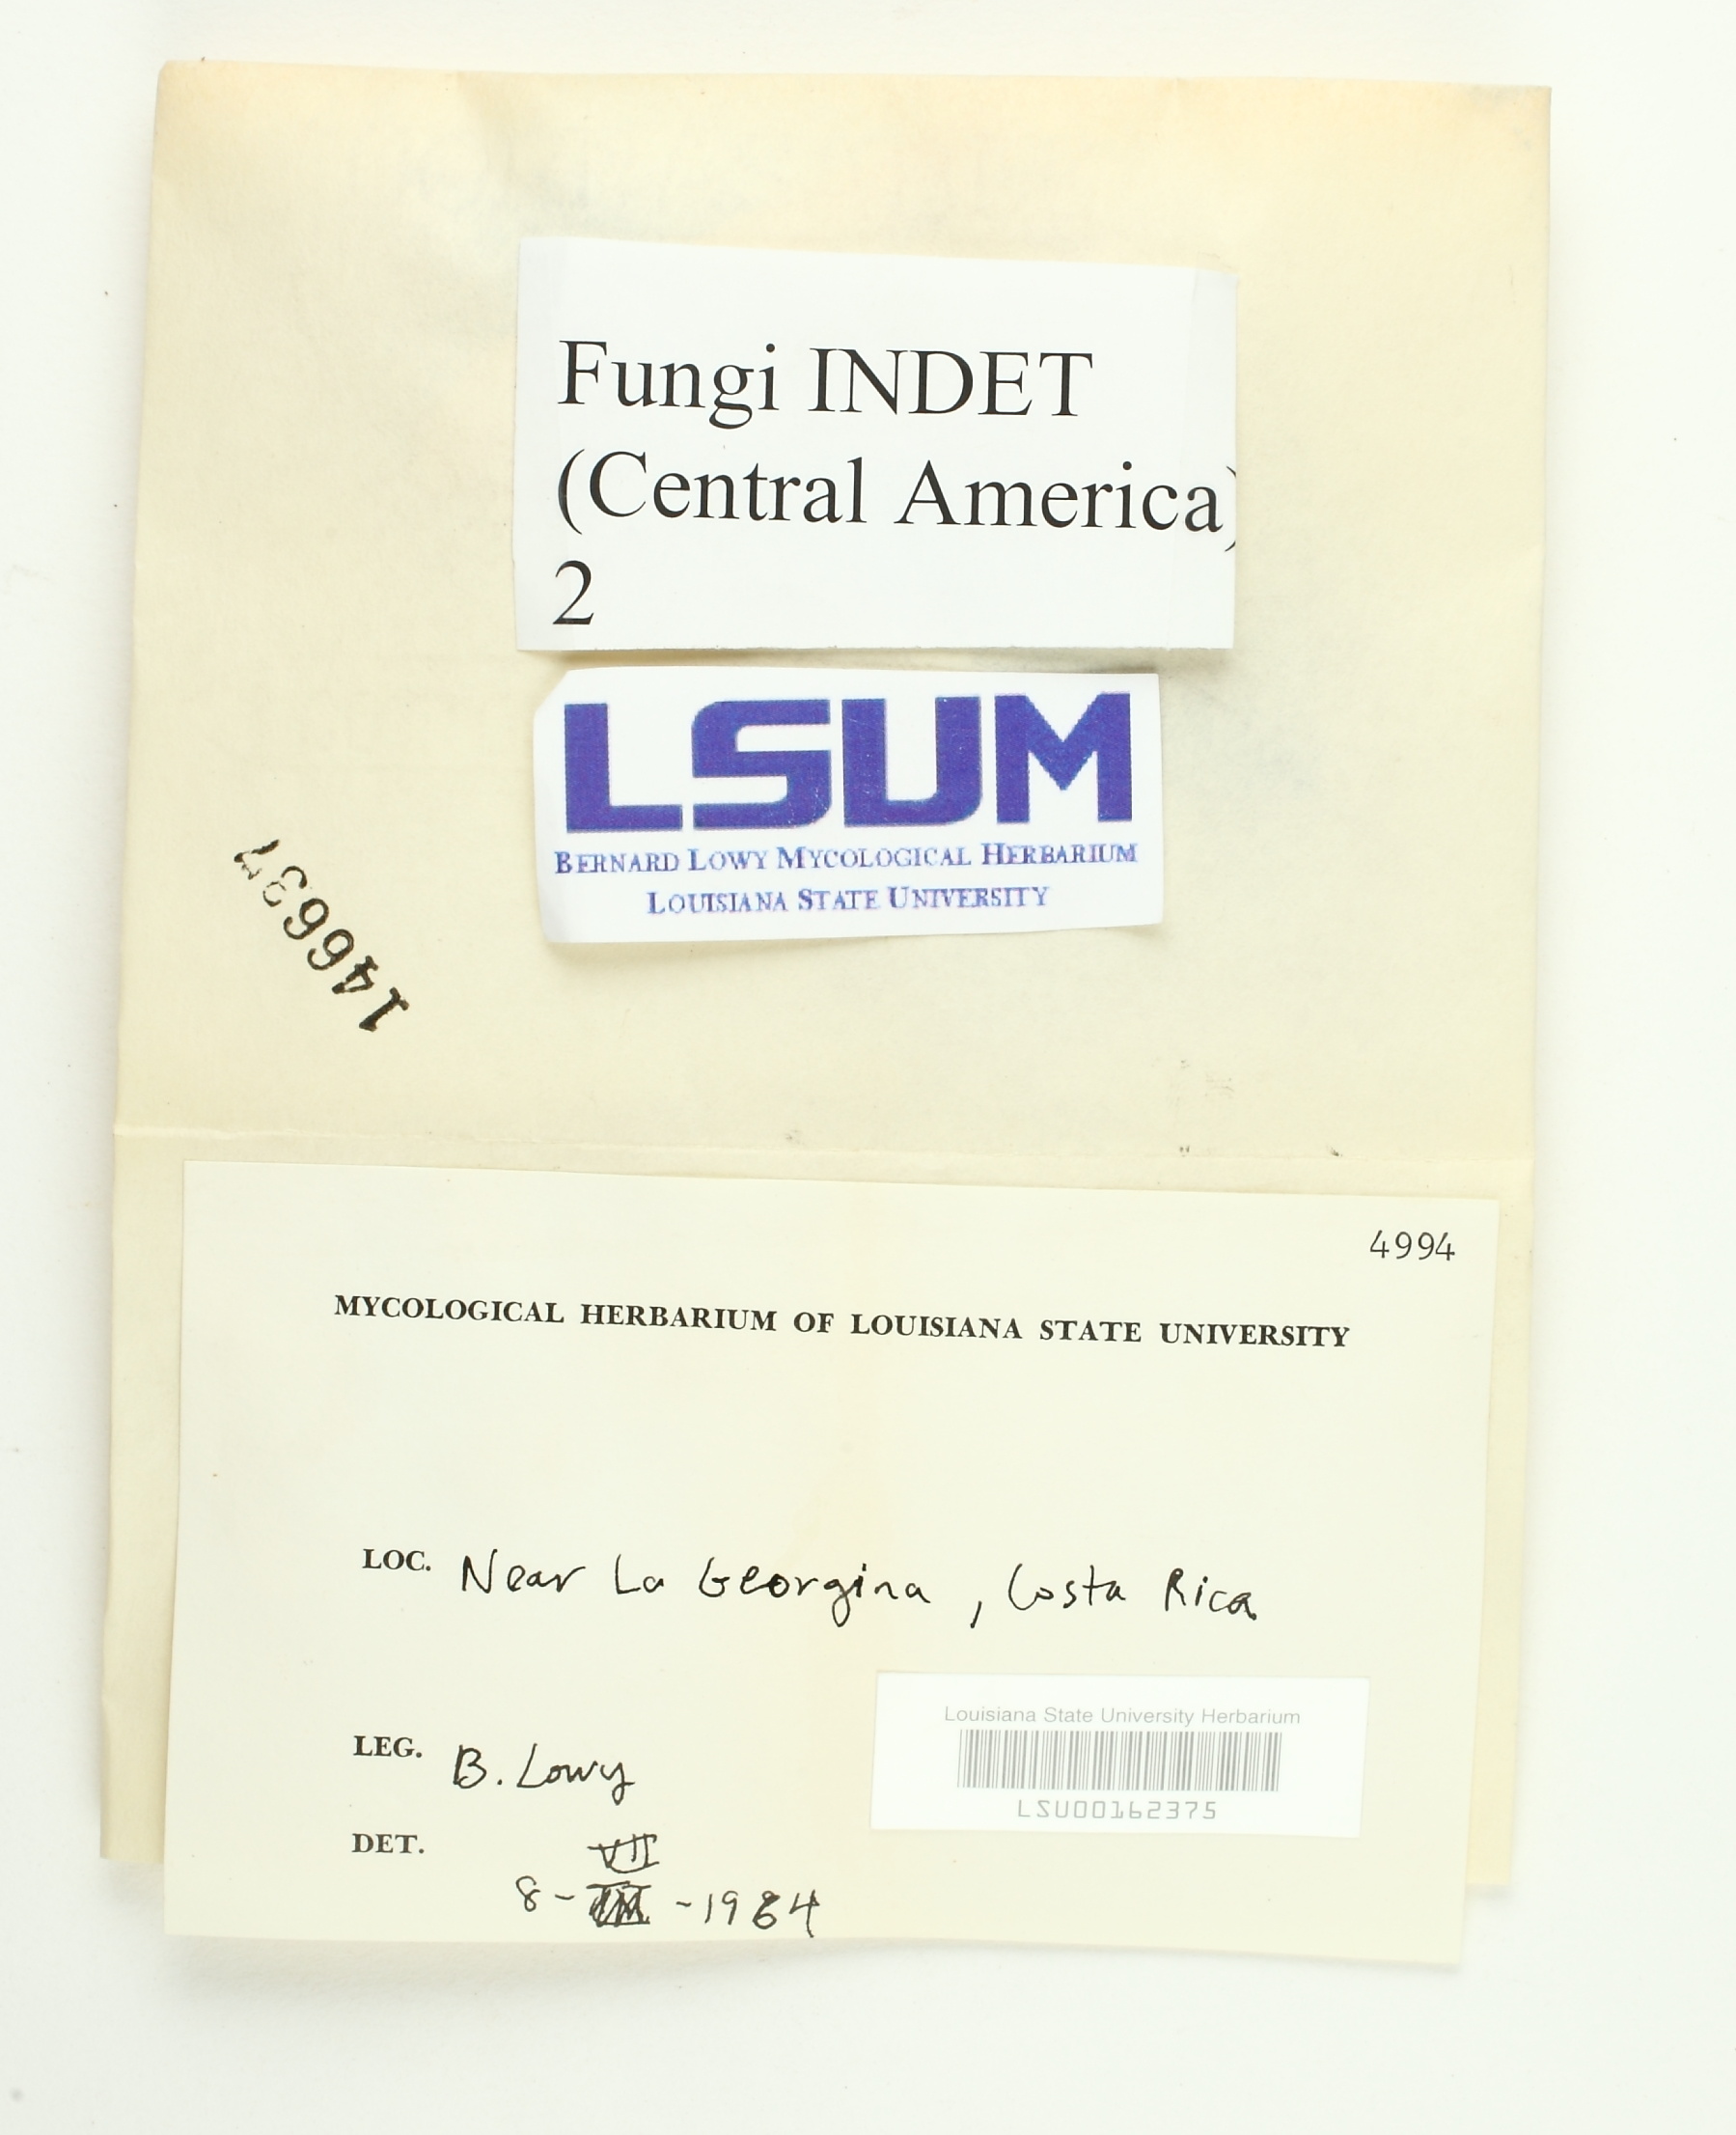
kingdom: Fungi
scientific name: Fungi
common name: Fungi
